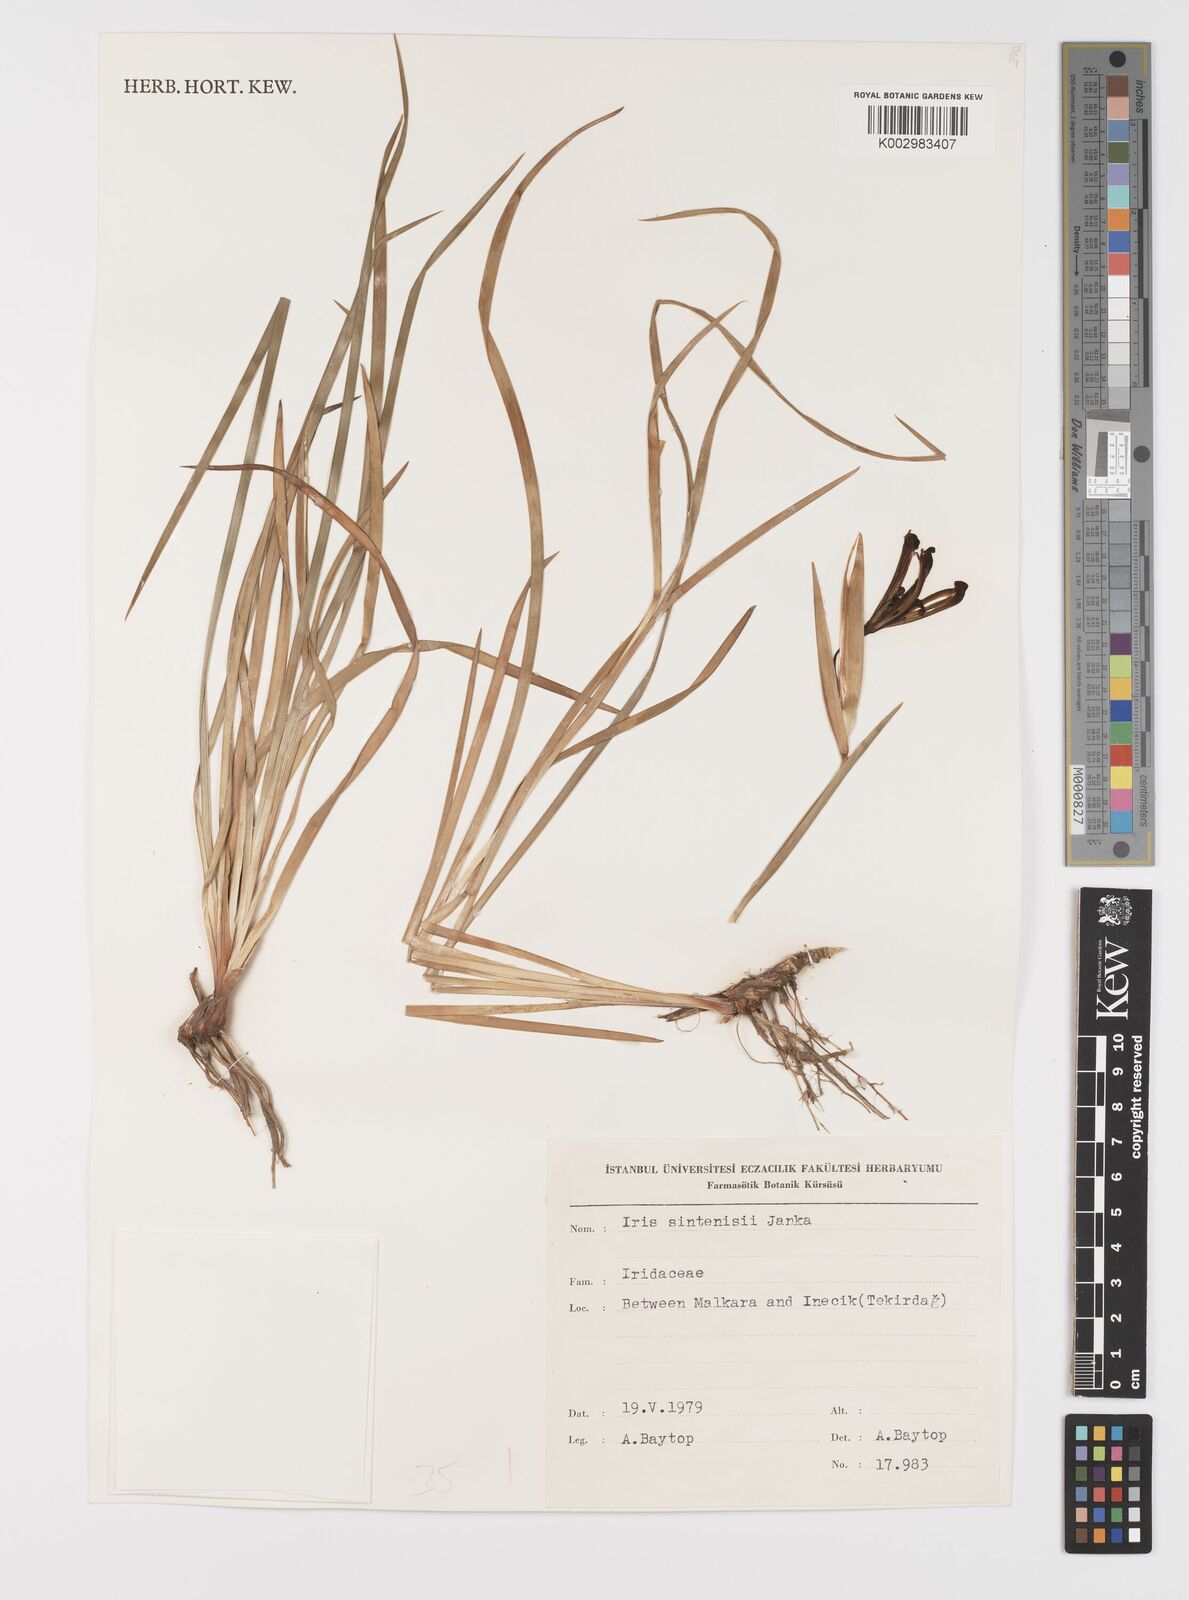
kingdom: Plantae
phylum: Tracheophyta
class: Liliopsida
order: Asparagales
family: Iridaceae
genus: Iris
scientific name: Iris sintenisii
